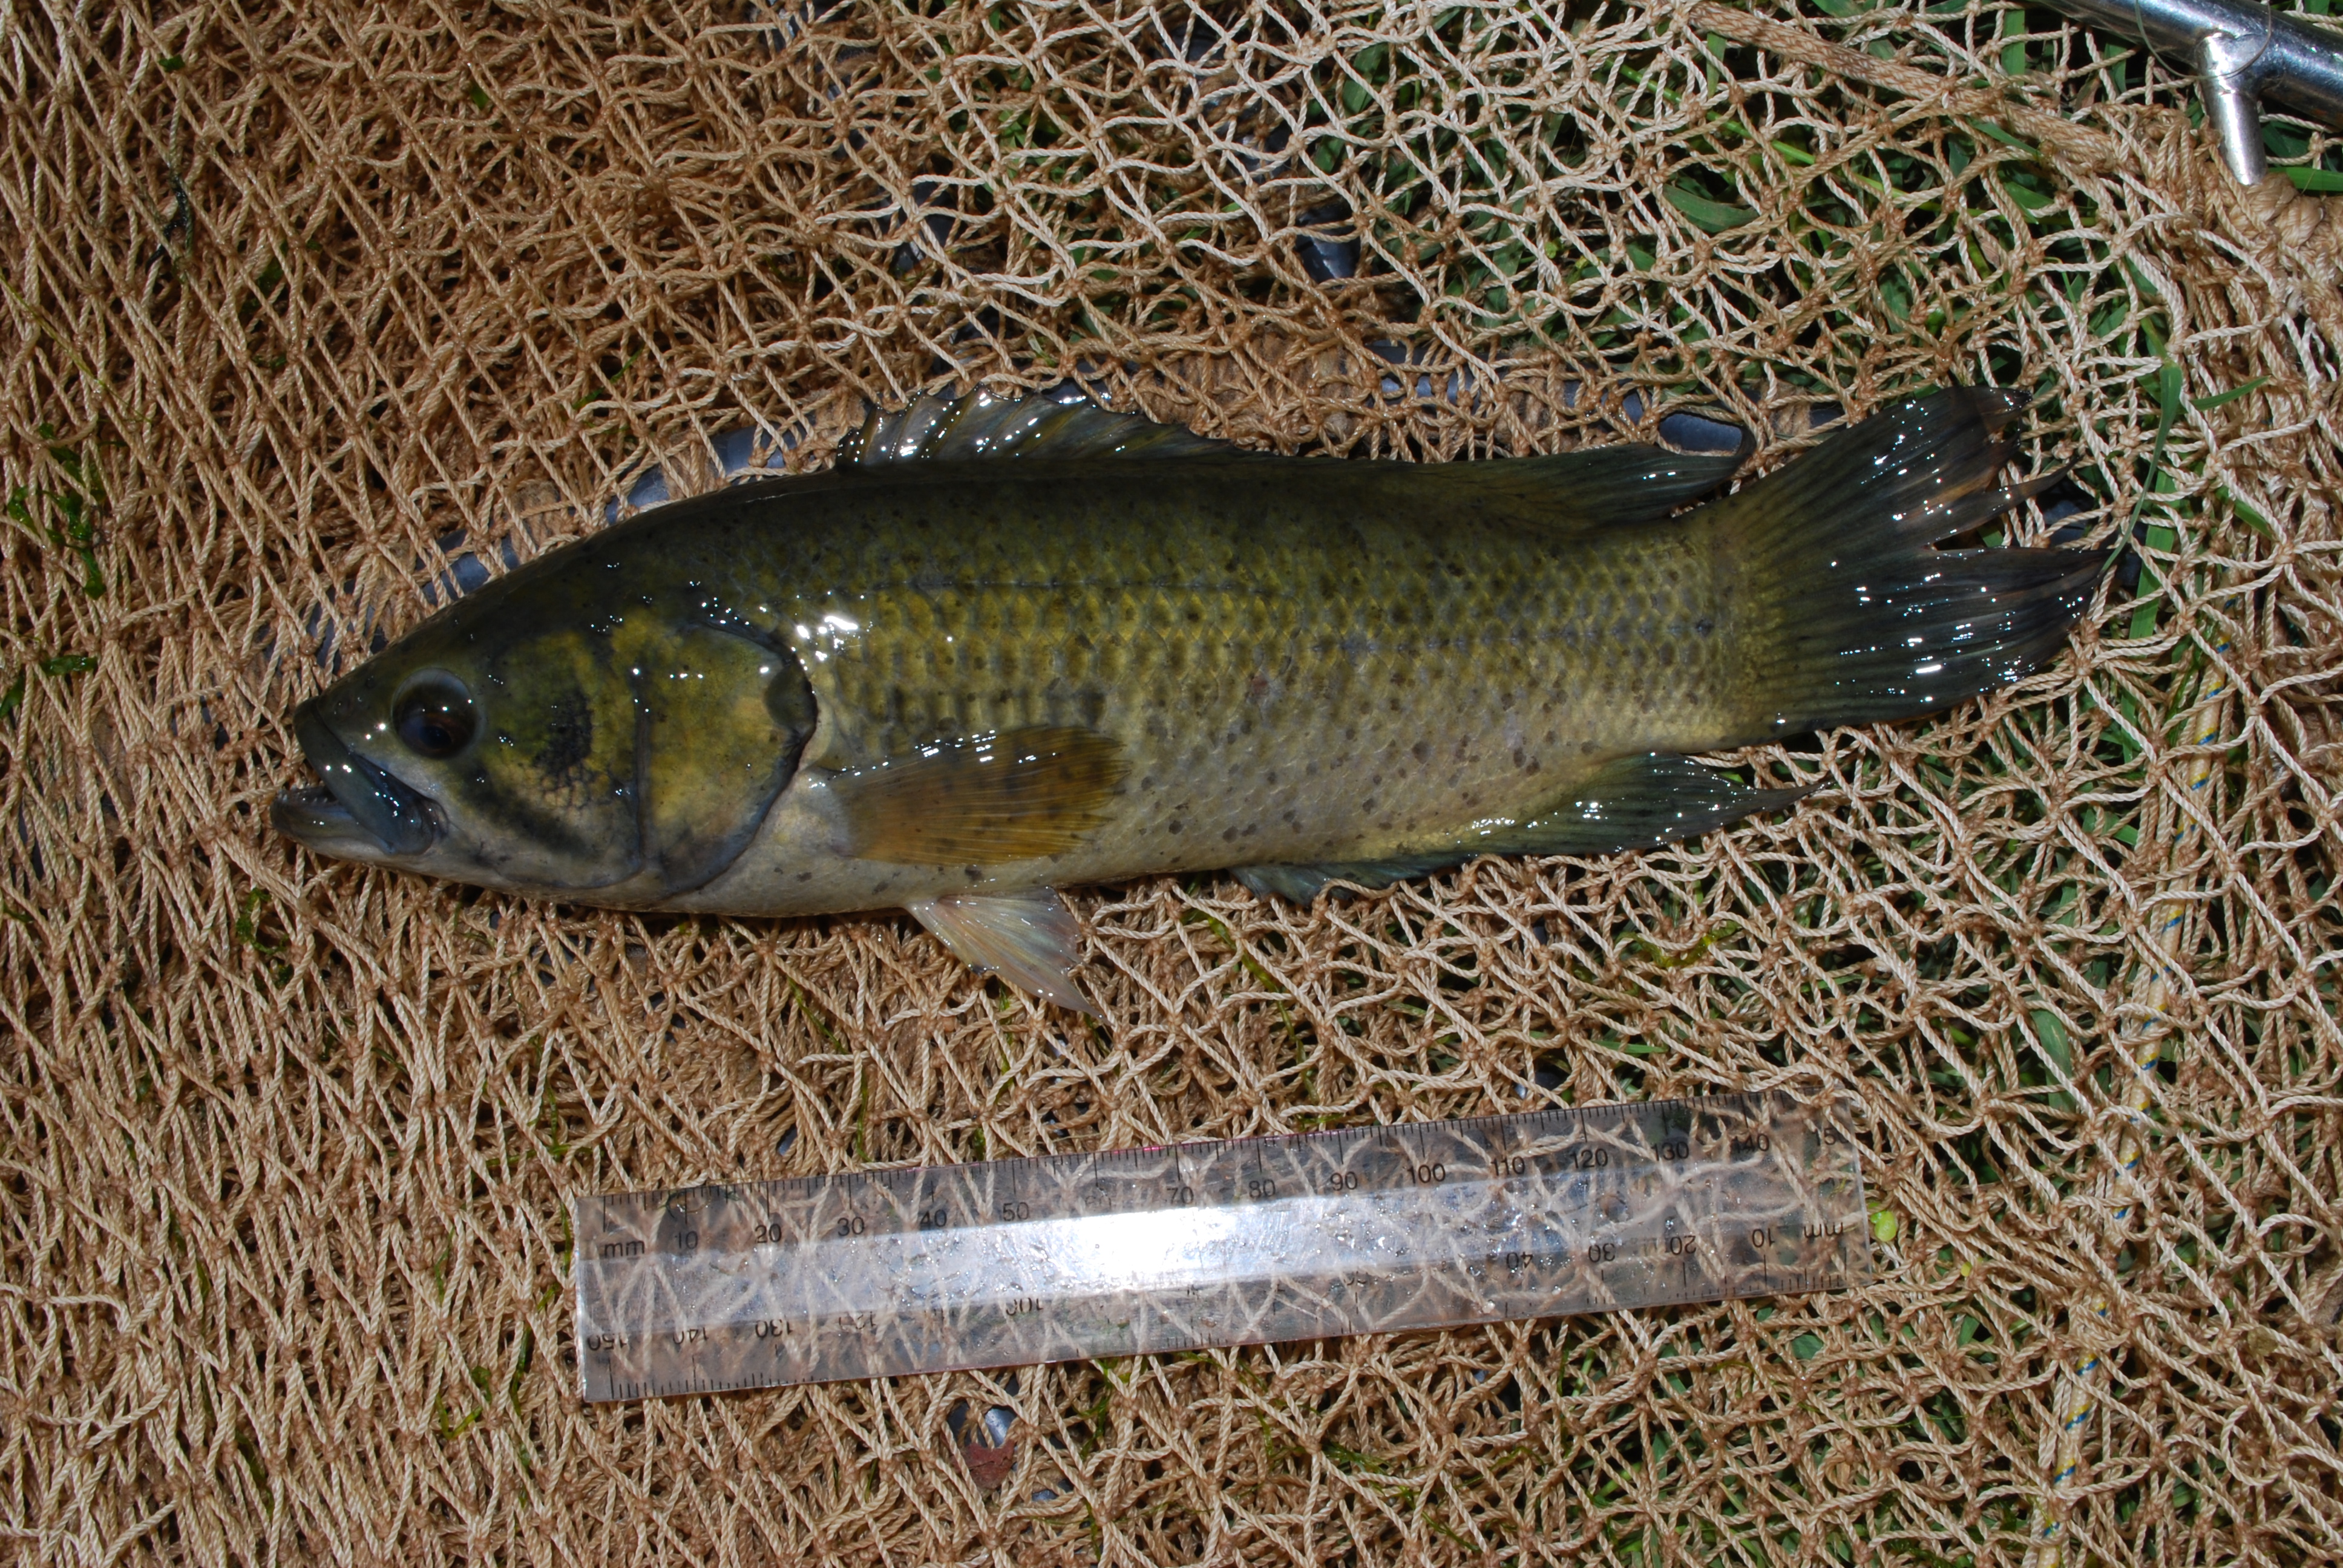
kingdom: Animalia
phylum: Chordata
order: Perciformes
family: Anabantidae
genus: Sandelia
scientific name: Sandelia bainsii
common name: Eastern cape rocky
